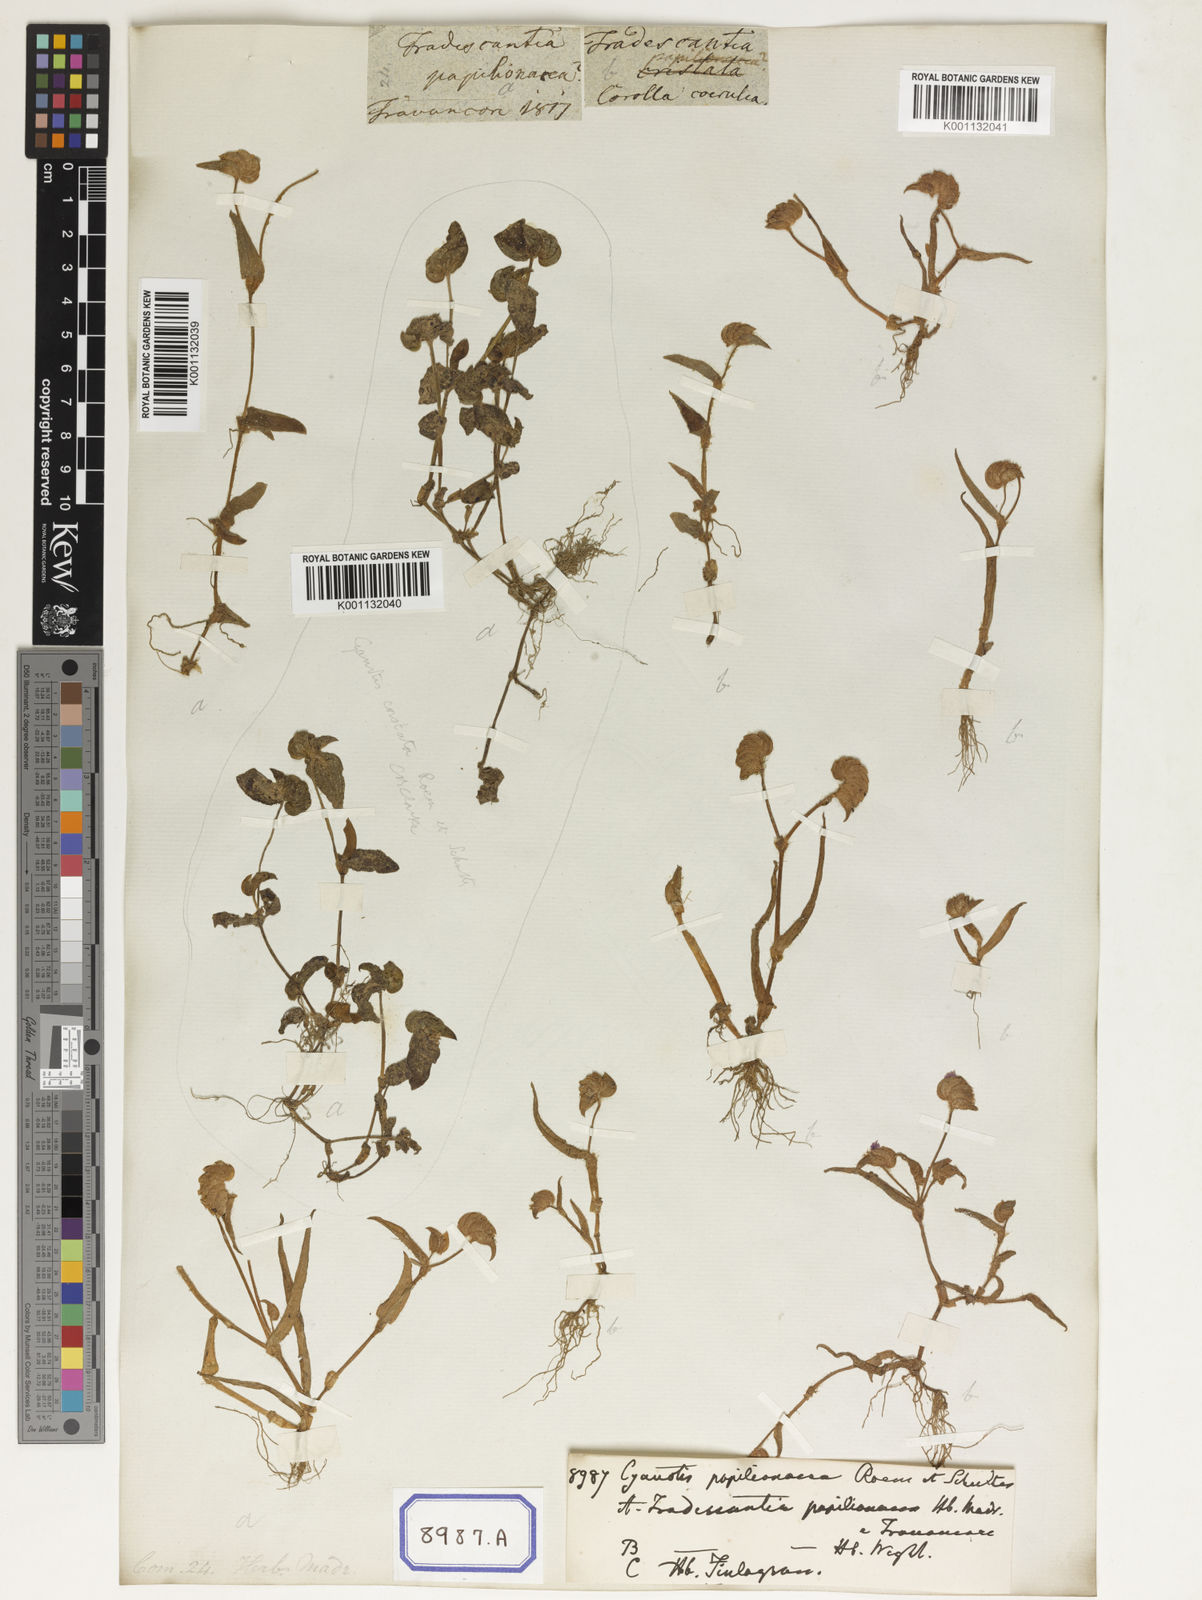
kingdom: Plantae
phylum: Tracheophyta
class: Liliopsida
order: Commelinales
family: Commelinaceae
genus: Cyanotis
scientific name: Cyanotis cristata
